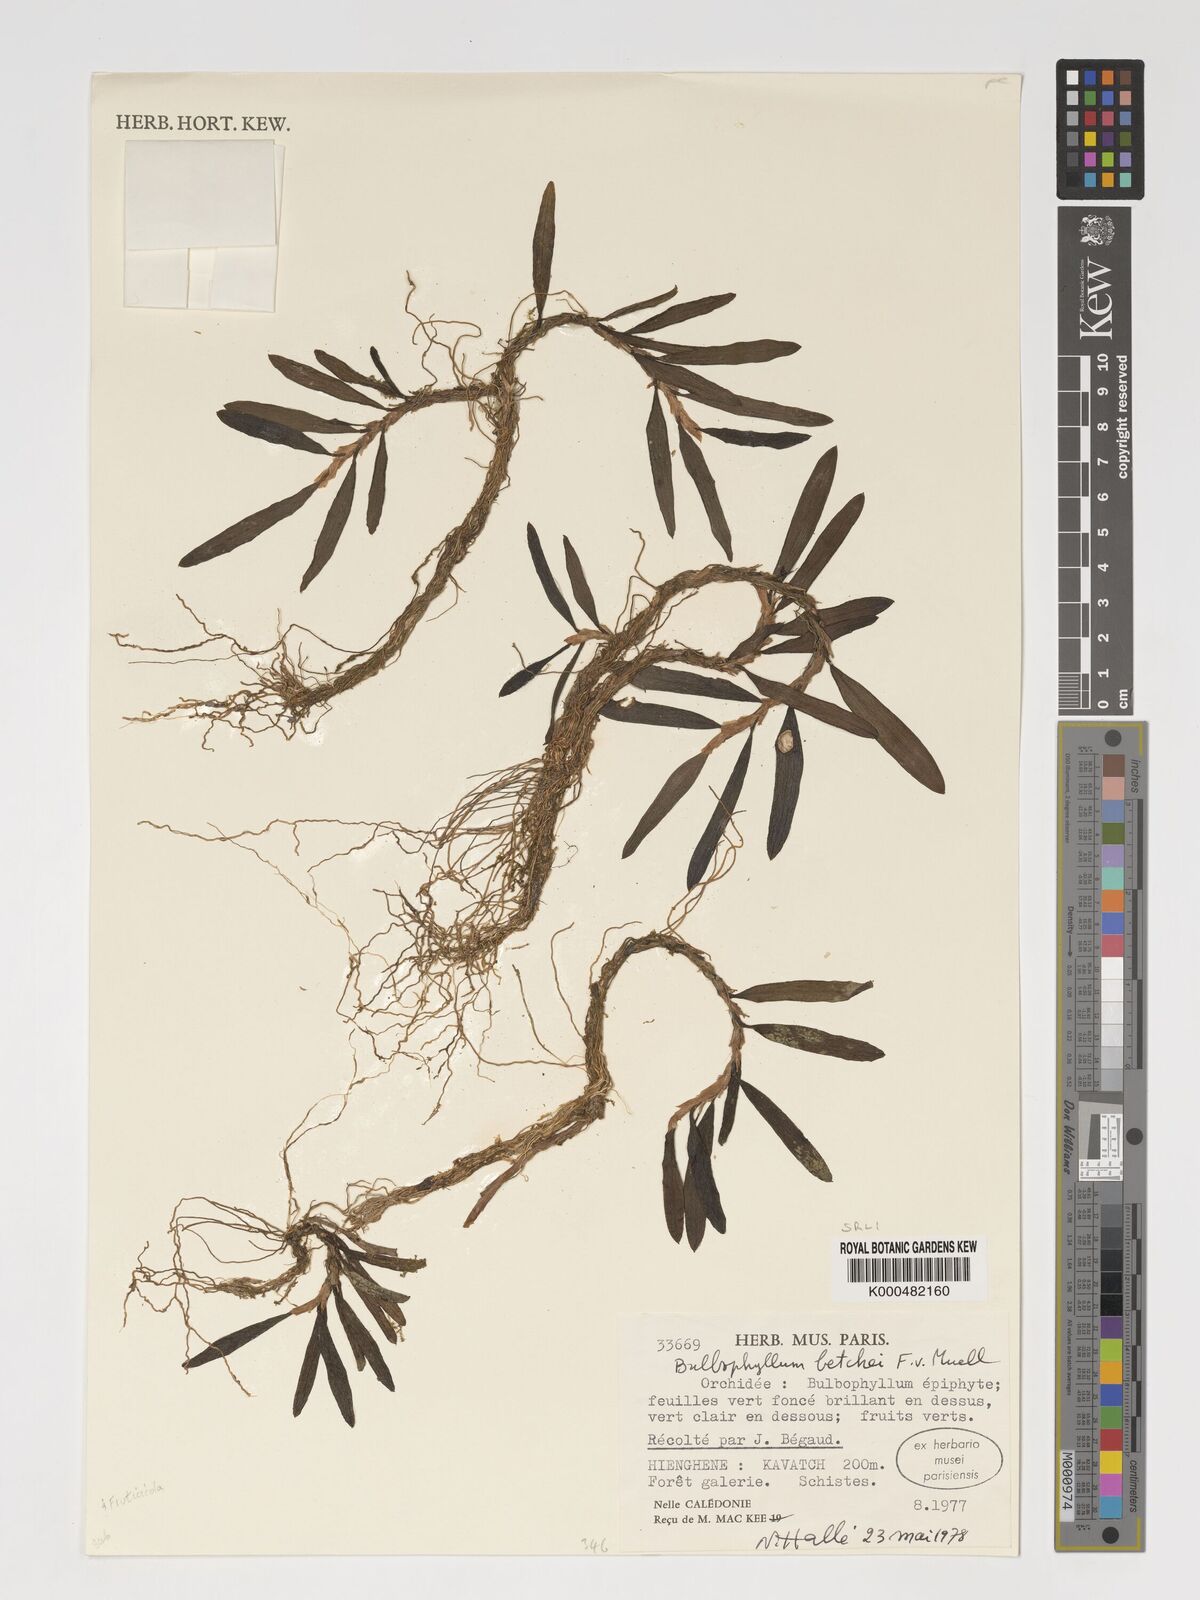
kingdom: Plantae
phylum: Tracheophyta
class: Liliopsida
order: Asparagales
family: Orchidaceae
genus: Bulbophyllum
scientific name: Bulbophyllum betchei
